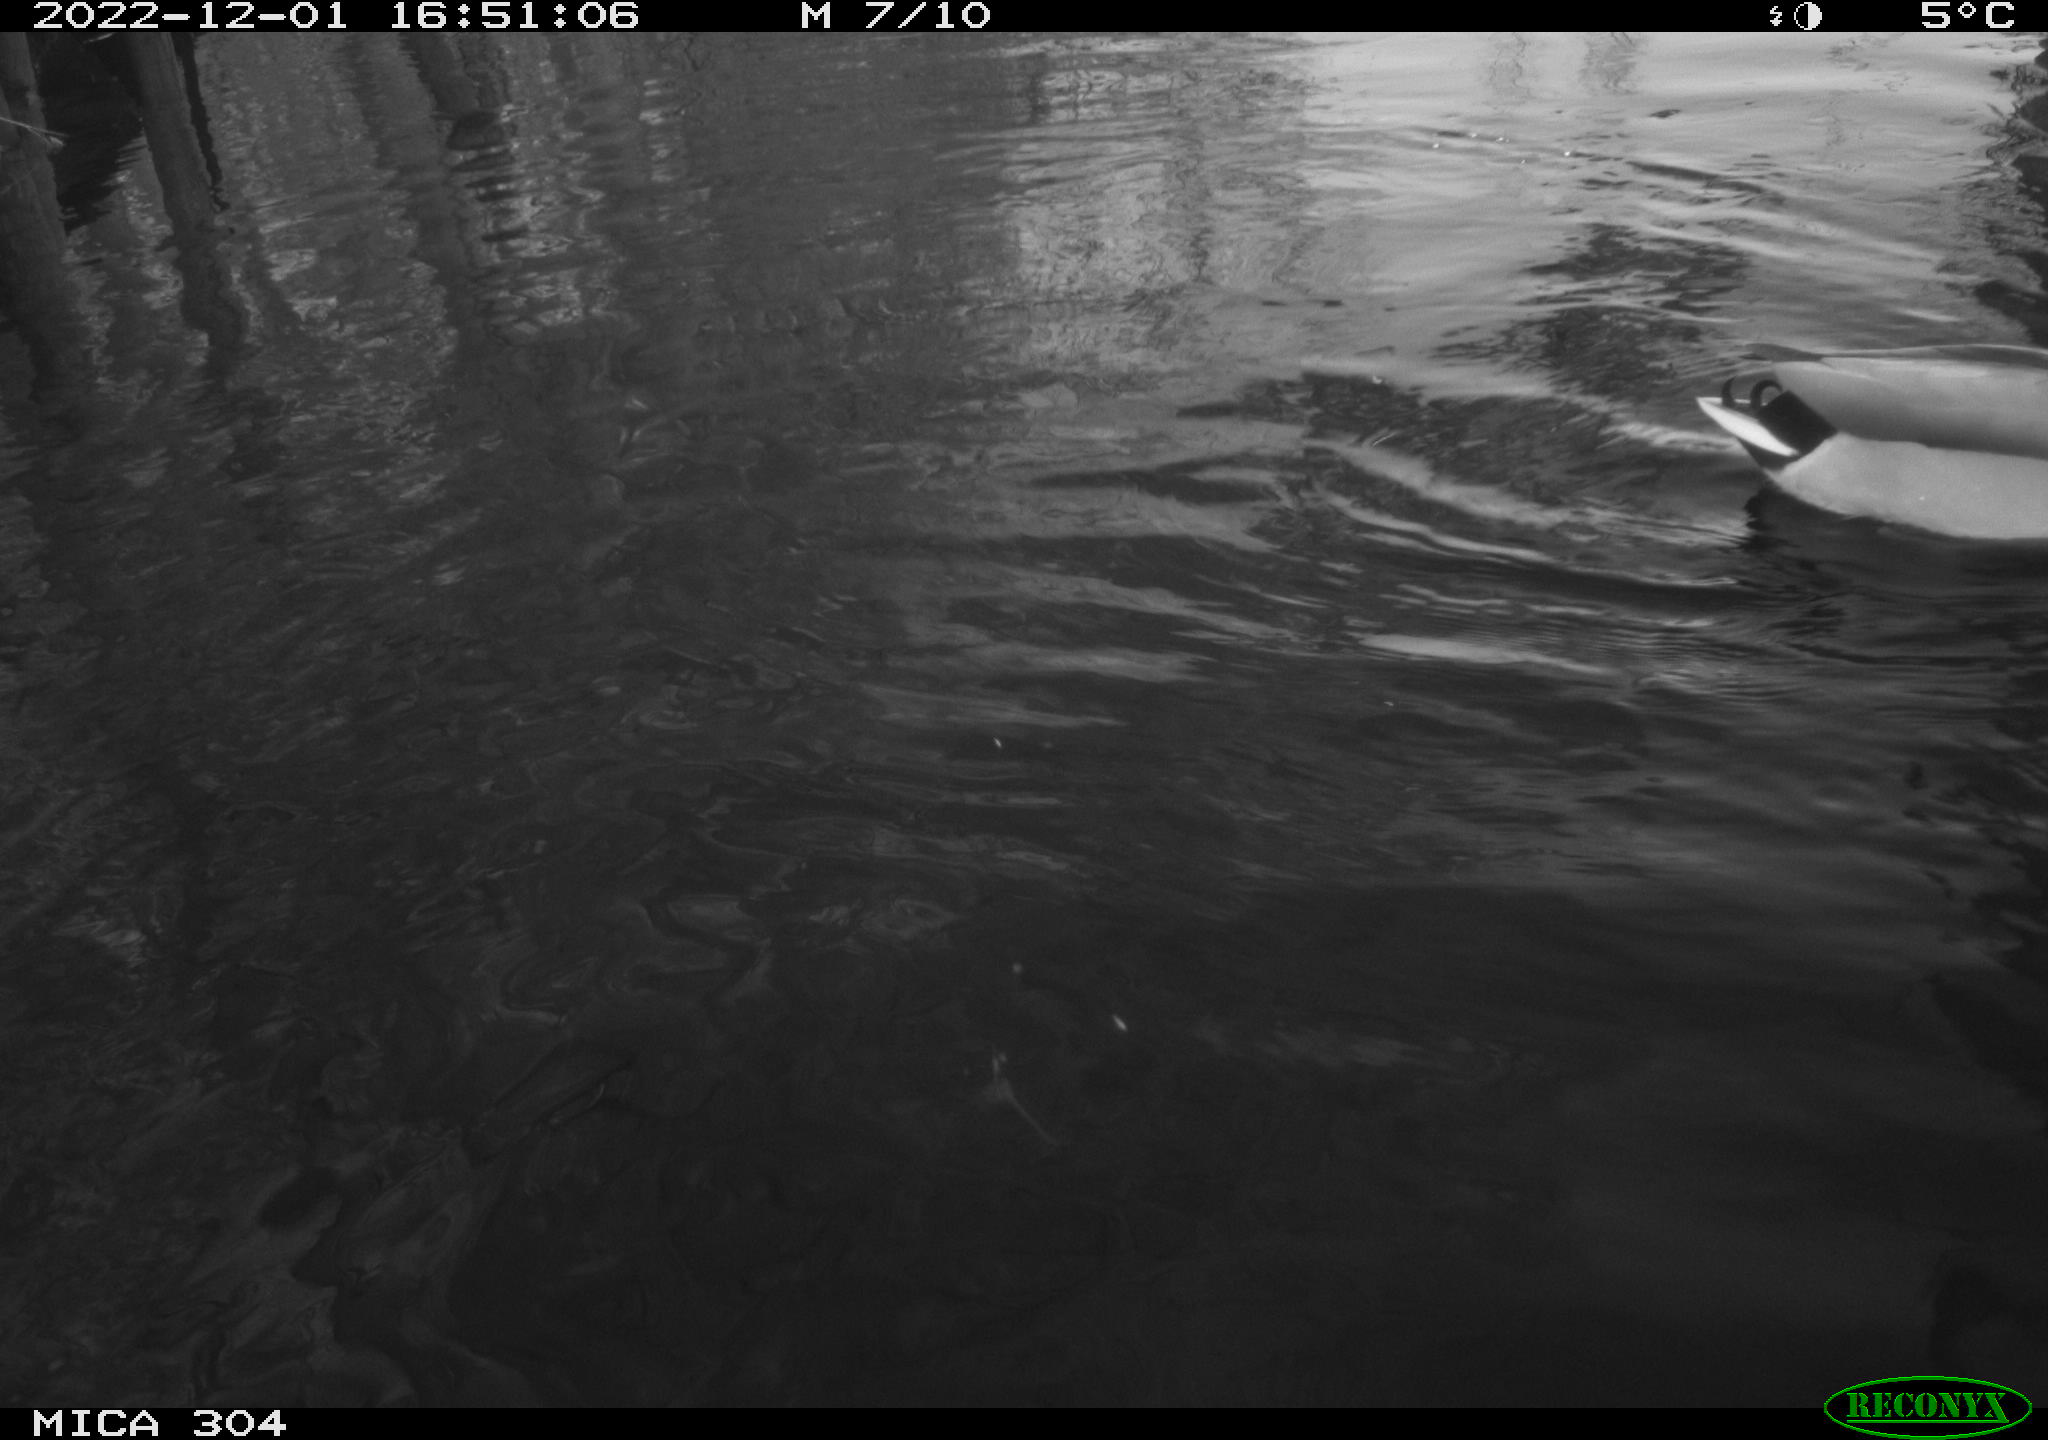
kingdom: Animalia
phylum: Chordata
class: Aves
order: Anseriformes
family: Anatidae
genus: Anas
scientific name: Anas
